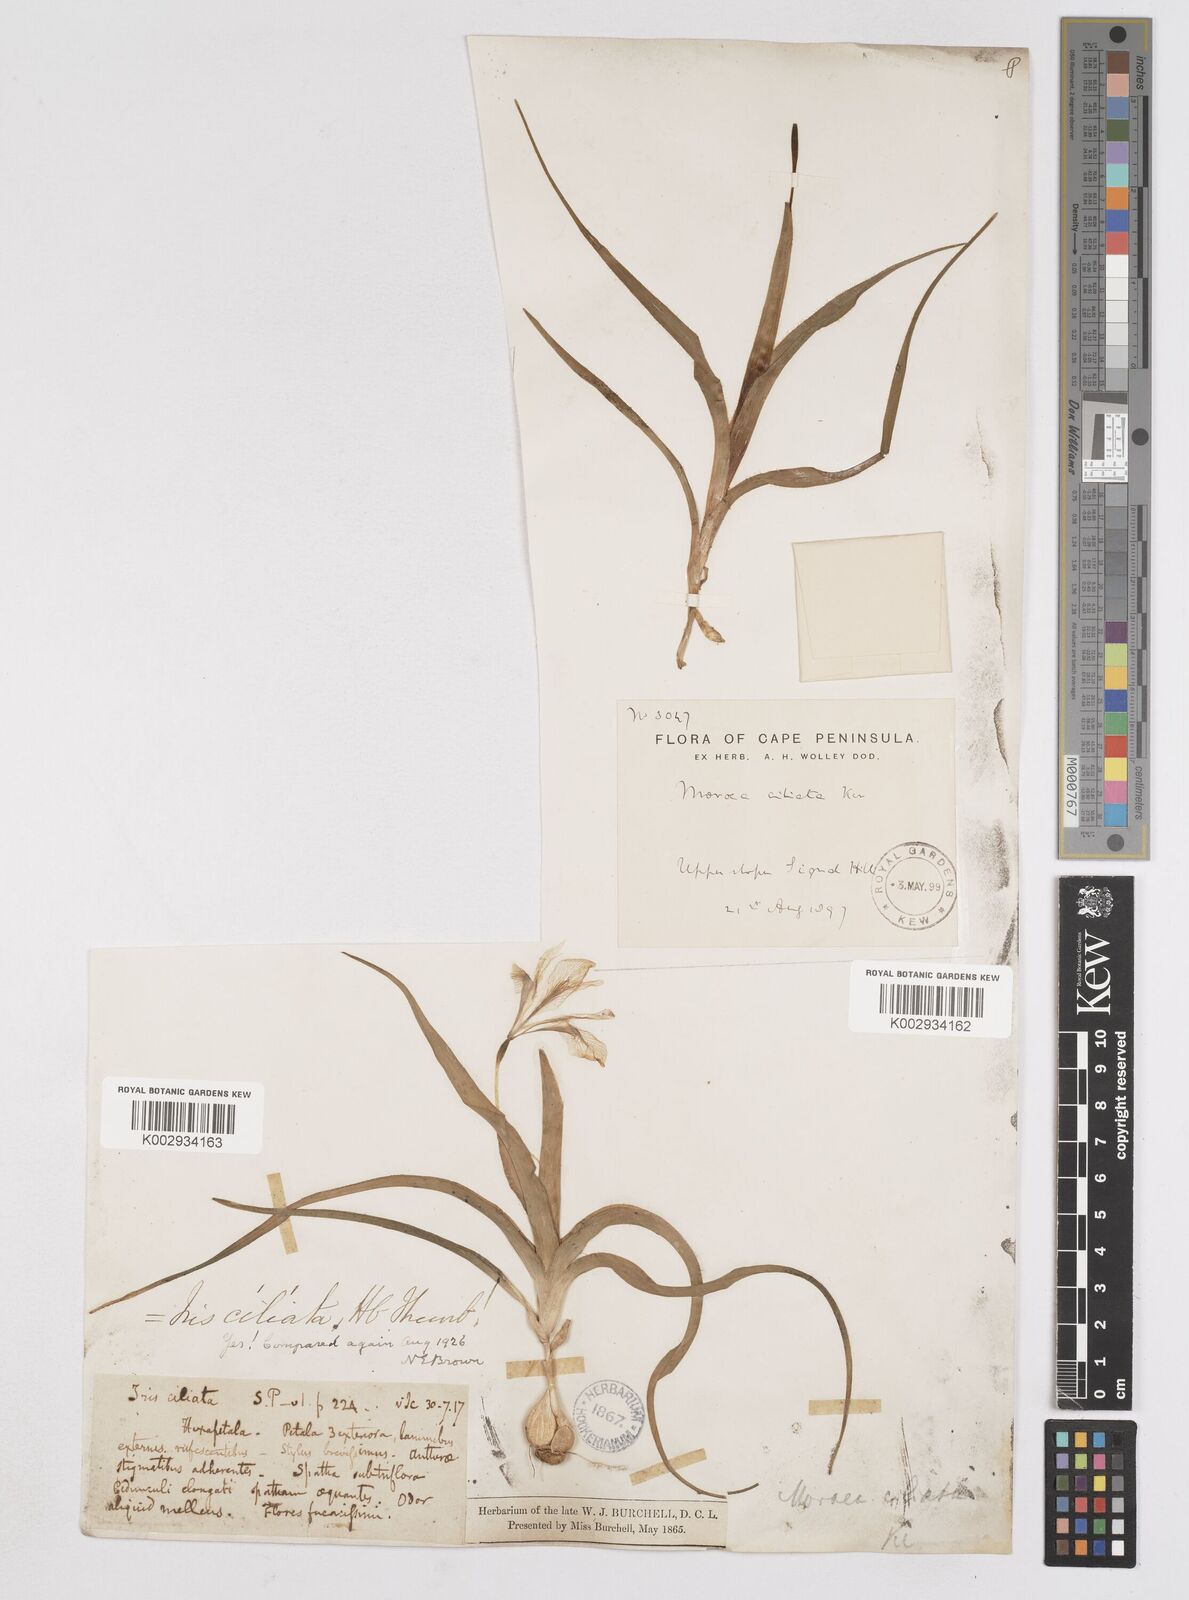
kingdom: Plantae
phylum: Tracheophyta
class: Liliopsida
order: Asparagales
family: Iridaceae
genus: Moraea
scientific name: Moraea ciliata
